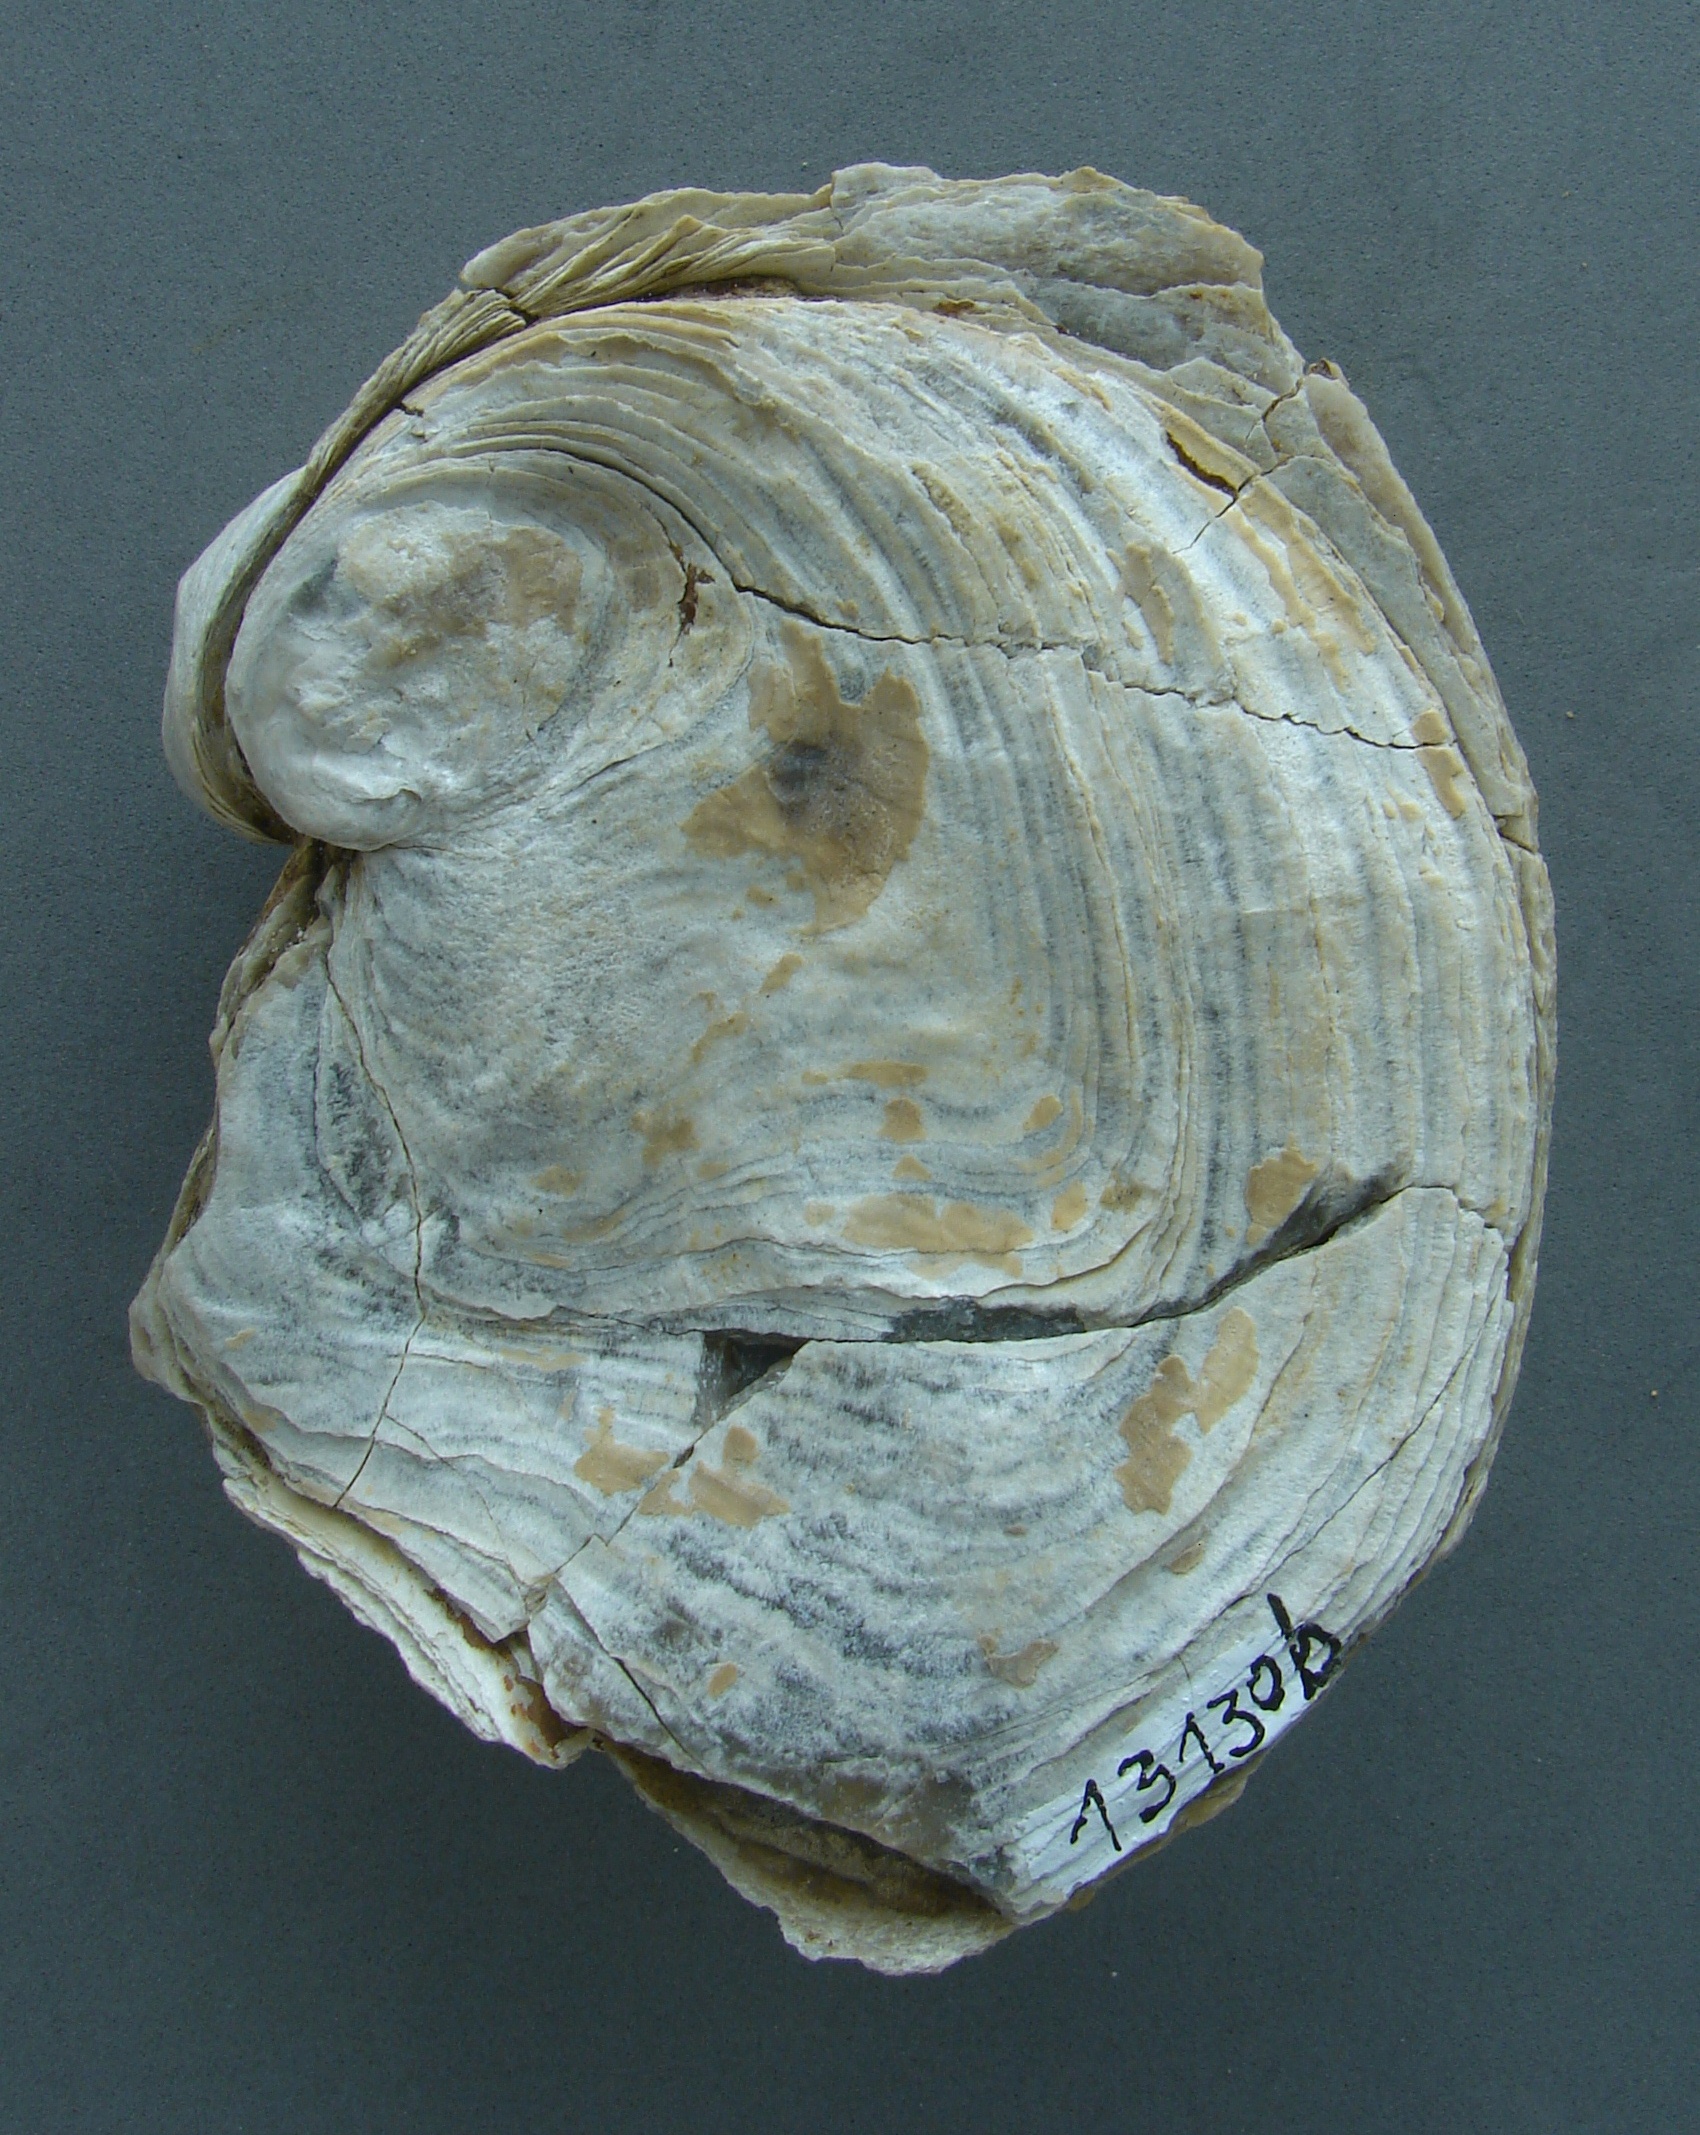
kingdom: Animalia
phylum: Mollusca
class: Bivalvia
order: Ostreida
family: Ostreidae
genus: Ostrea
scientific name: Ostrea
